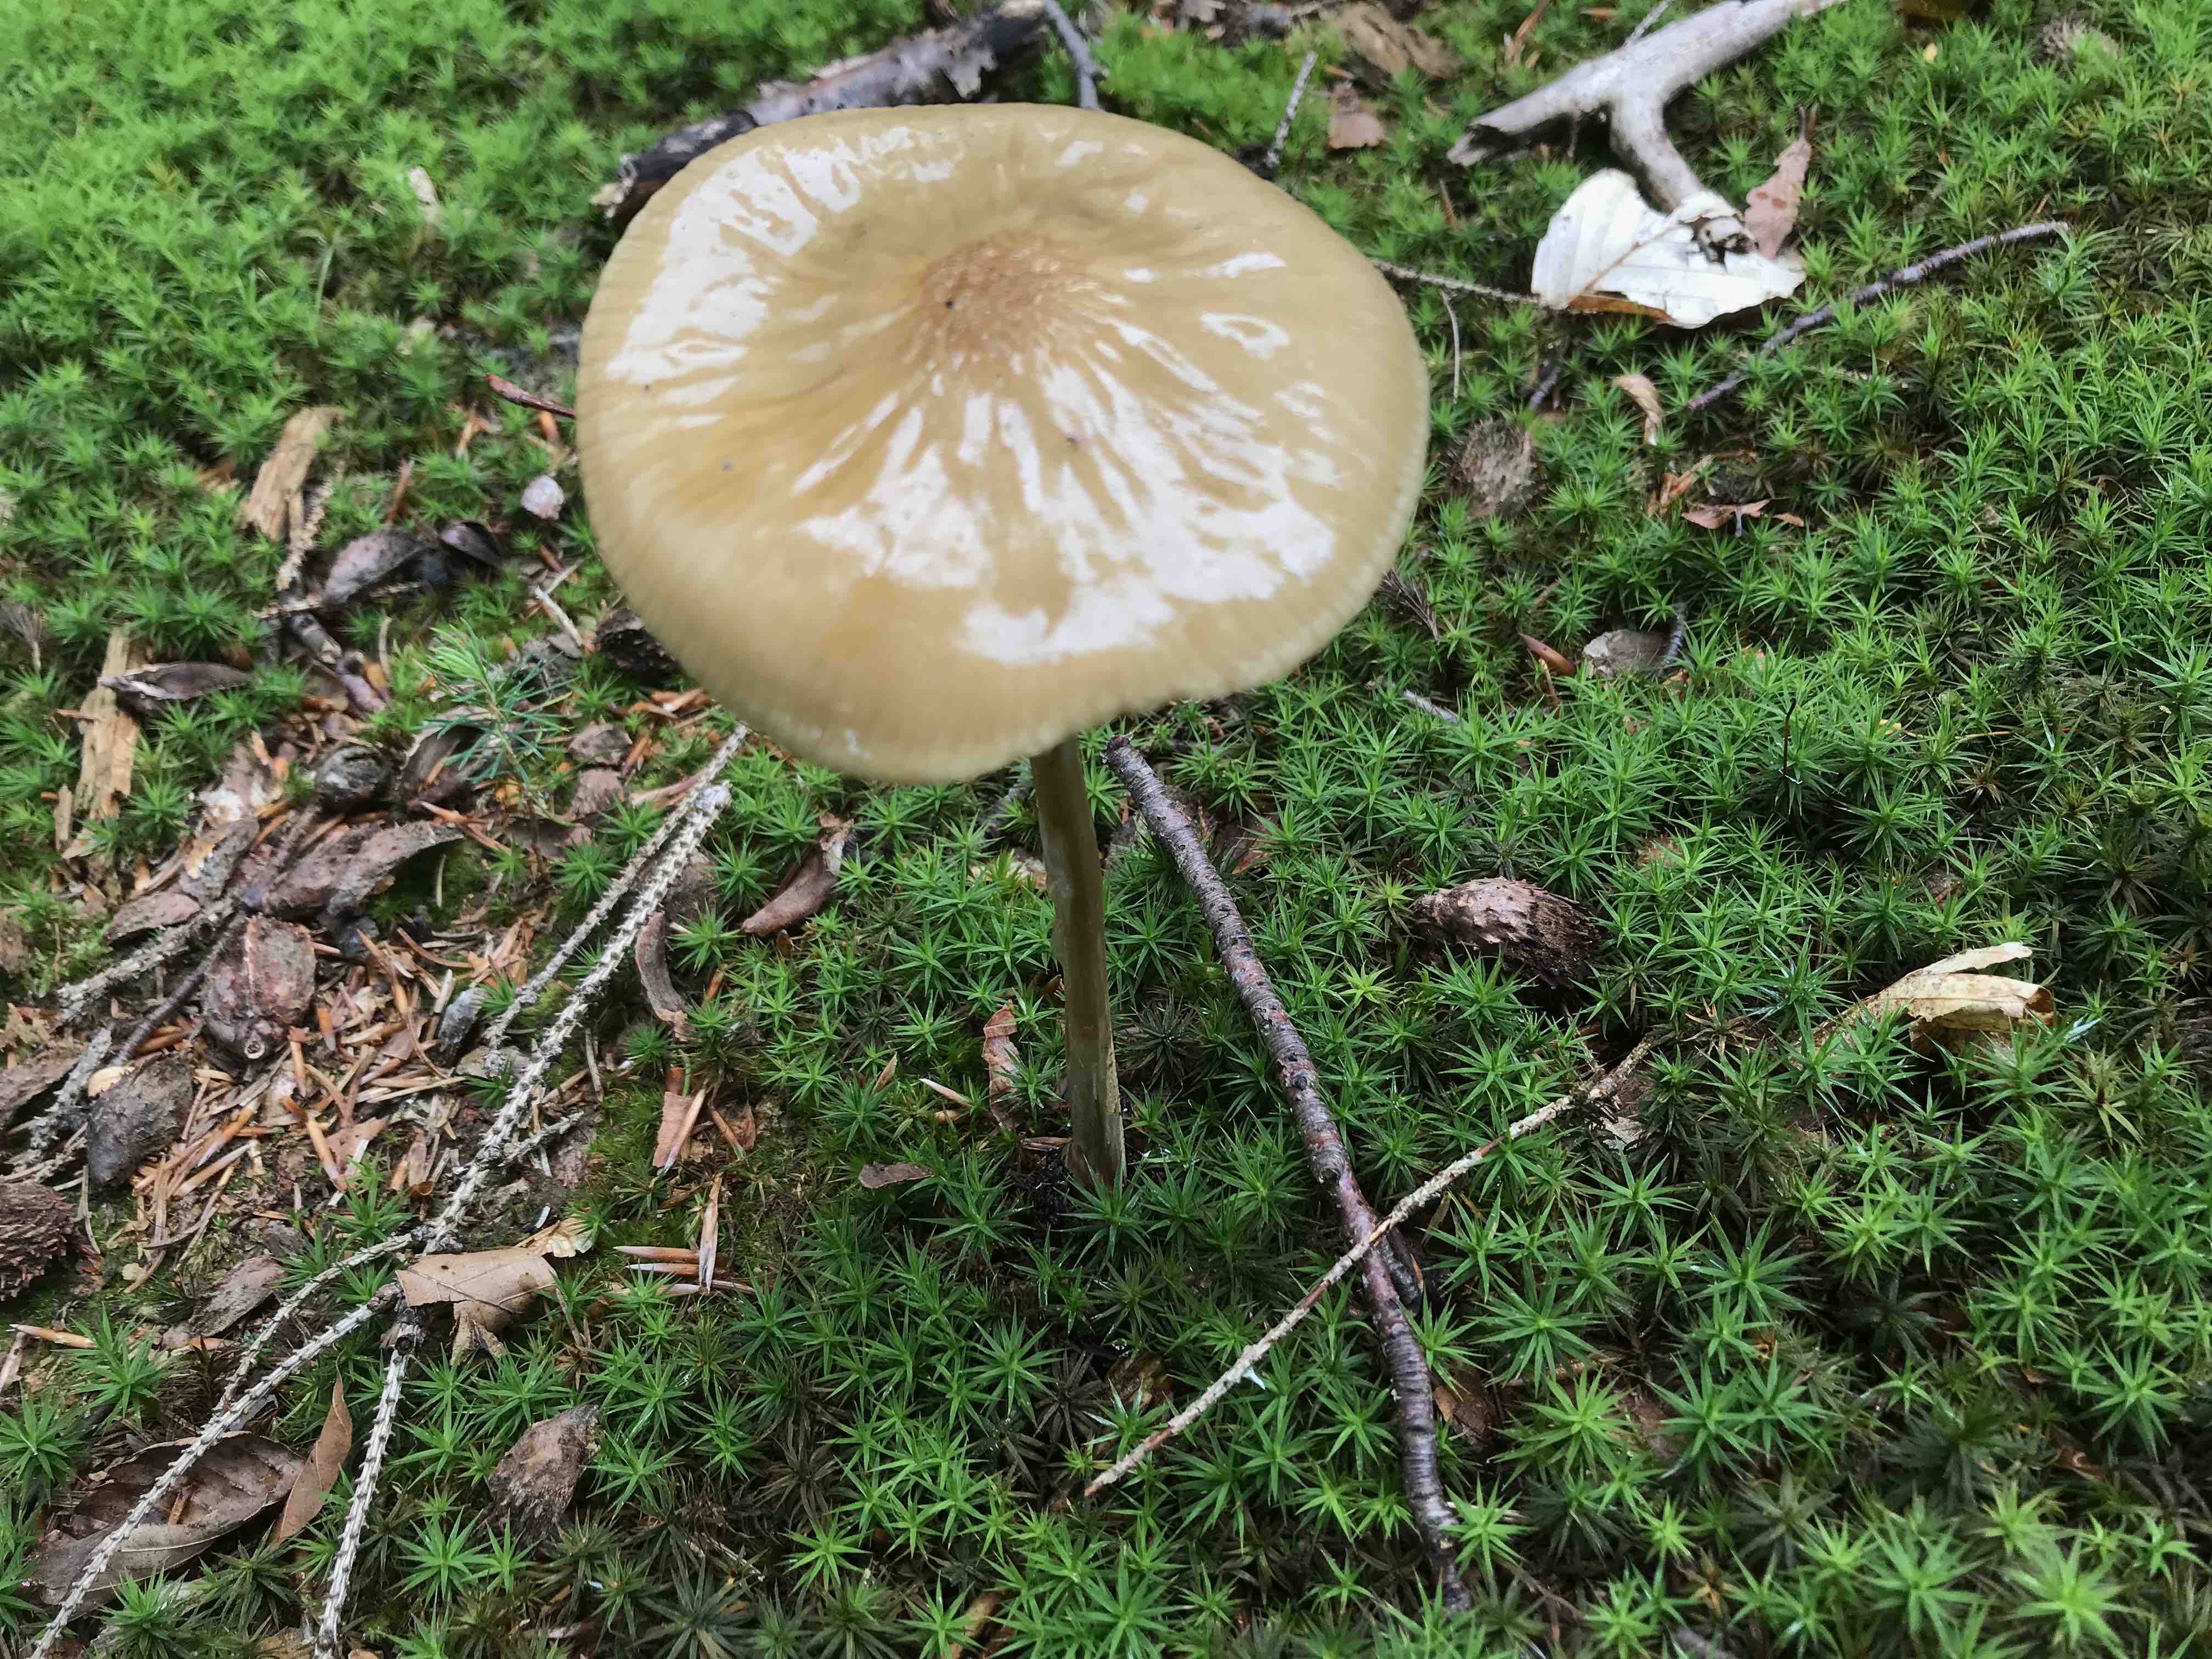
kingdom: Fungi
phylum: Basidiomycota
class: Agaricomycetes
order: Agaricales
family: Physalacriaceae
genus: Hymenopellis
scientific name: Hymenopellis radicata
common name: almindelig pælerodshat
